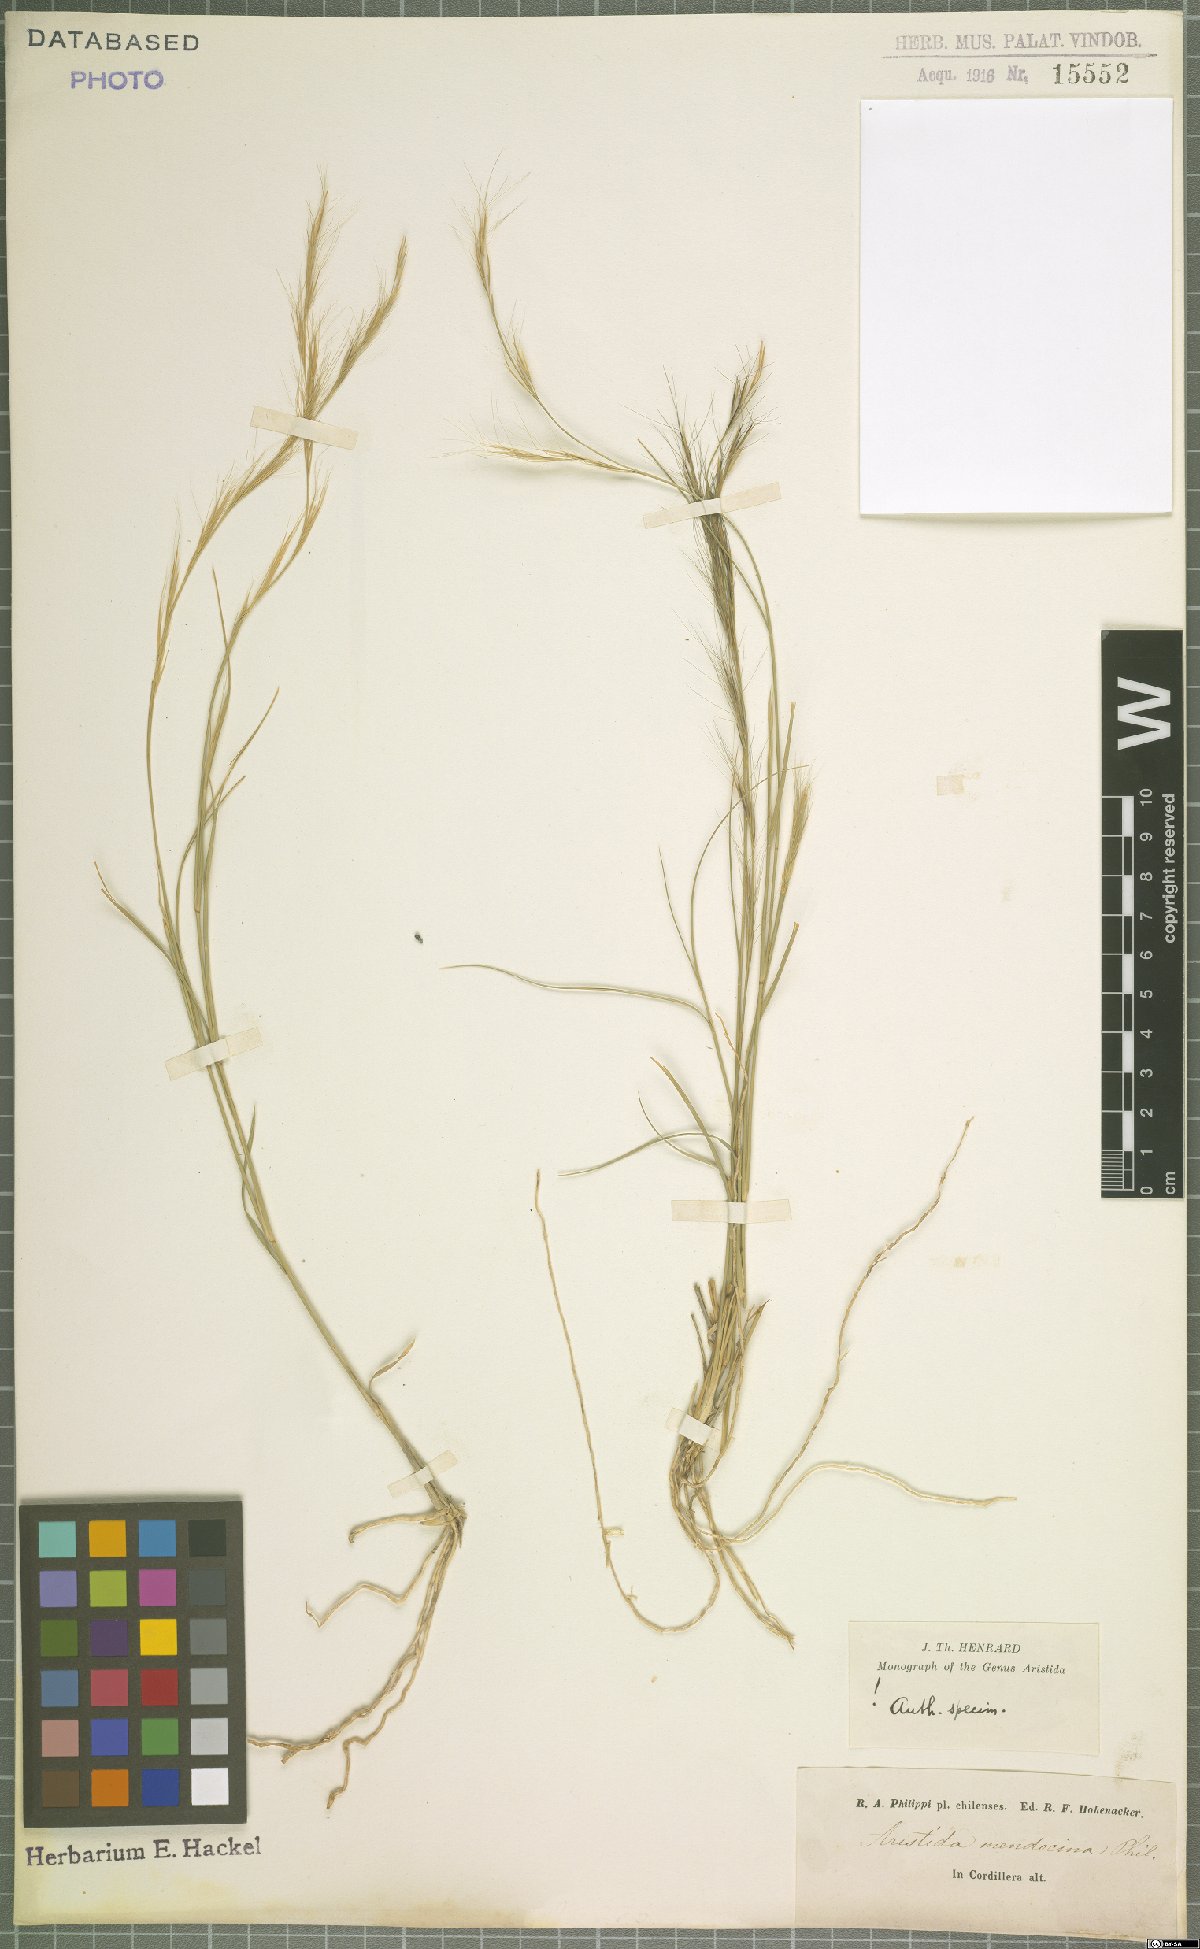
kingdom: Plantae
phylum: Tracheophyta
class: Liliopsida
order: Poales
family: Poaceae
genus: Aristida
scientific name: Aristida mendocina
